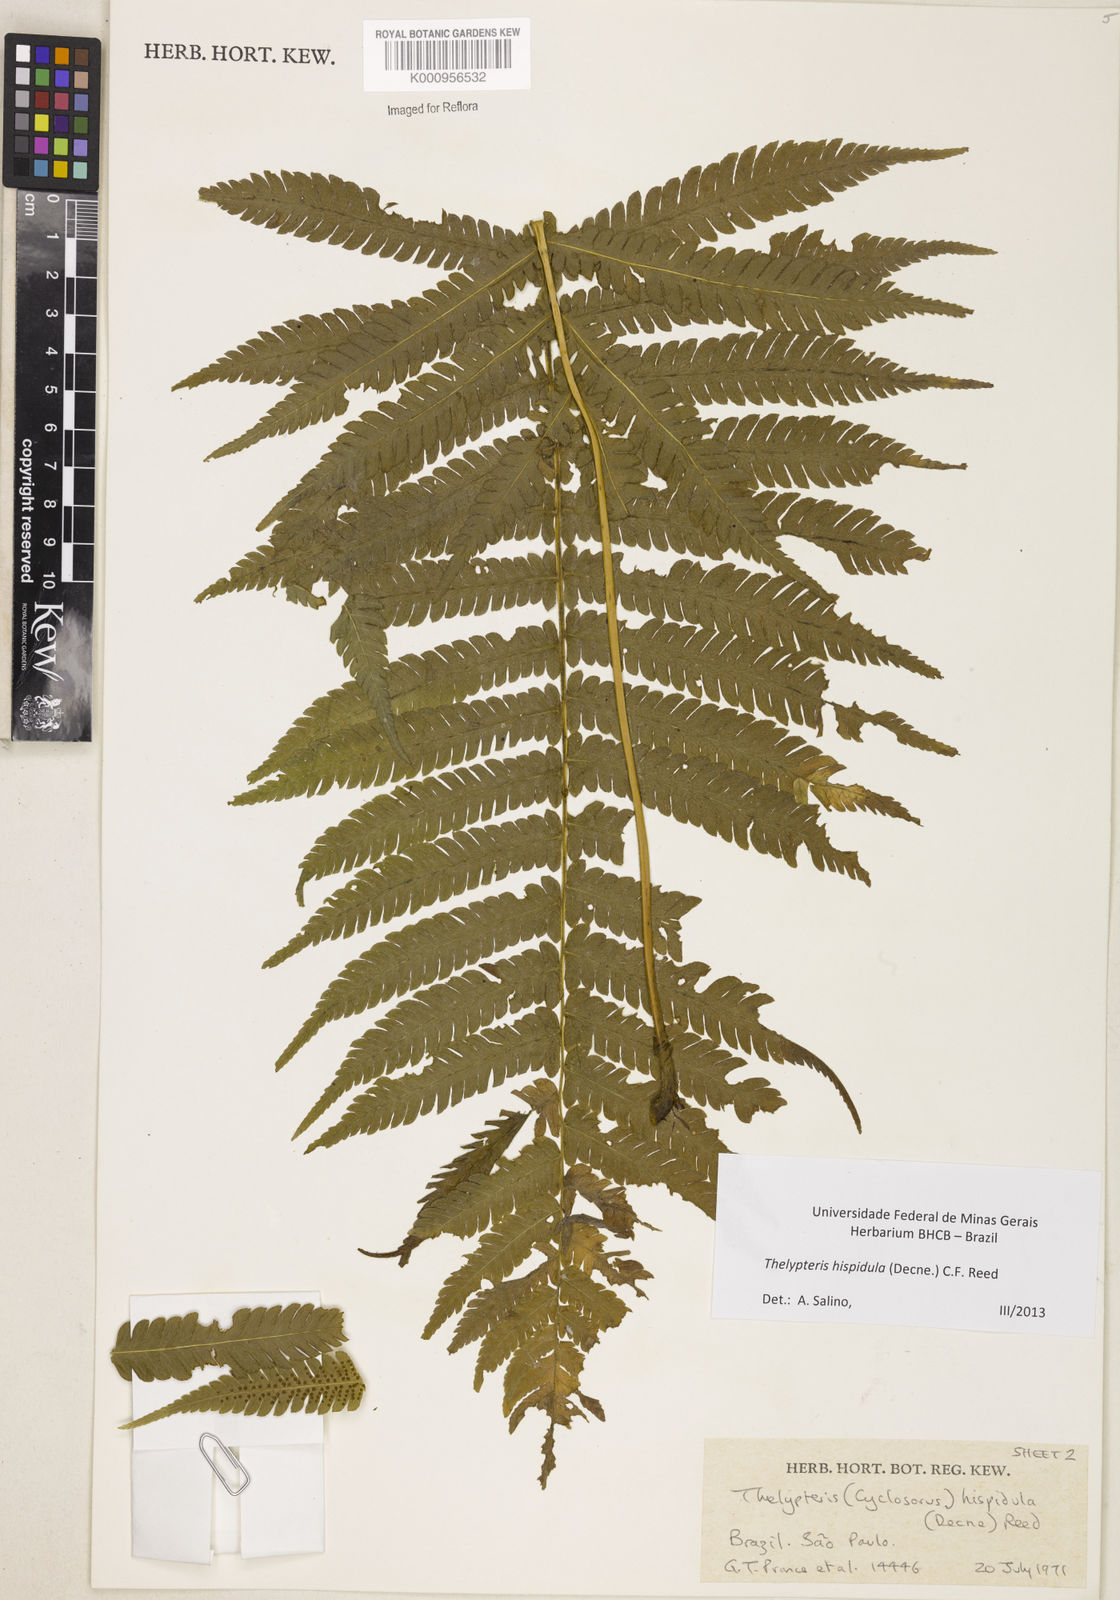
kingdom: Plantae
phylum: Tracheophyta
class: Polypodiopsida
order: Polypodiales
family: Thelypteridaceae
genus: Christella
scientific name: Christella hispidula
